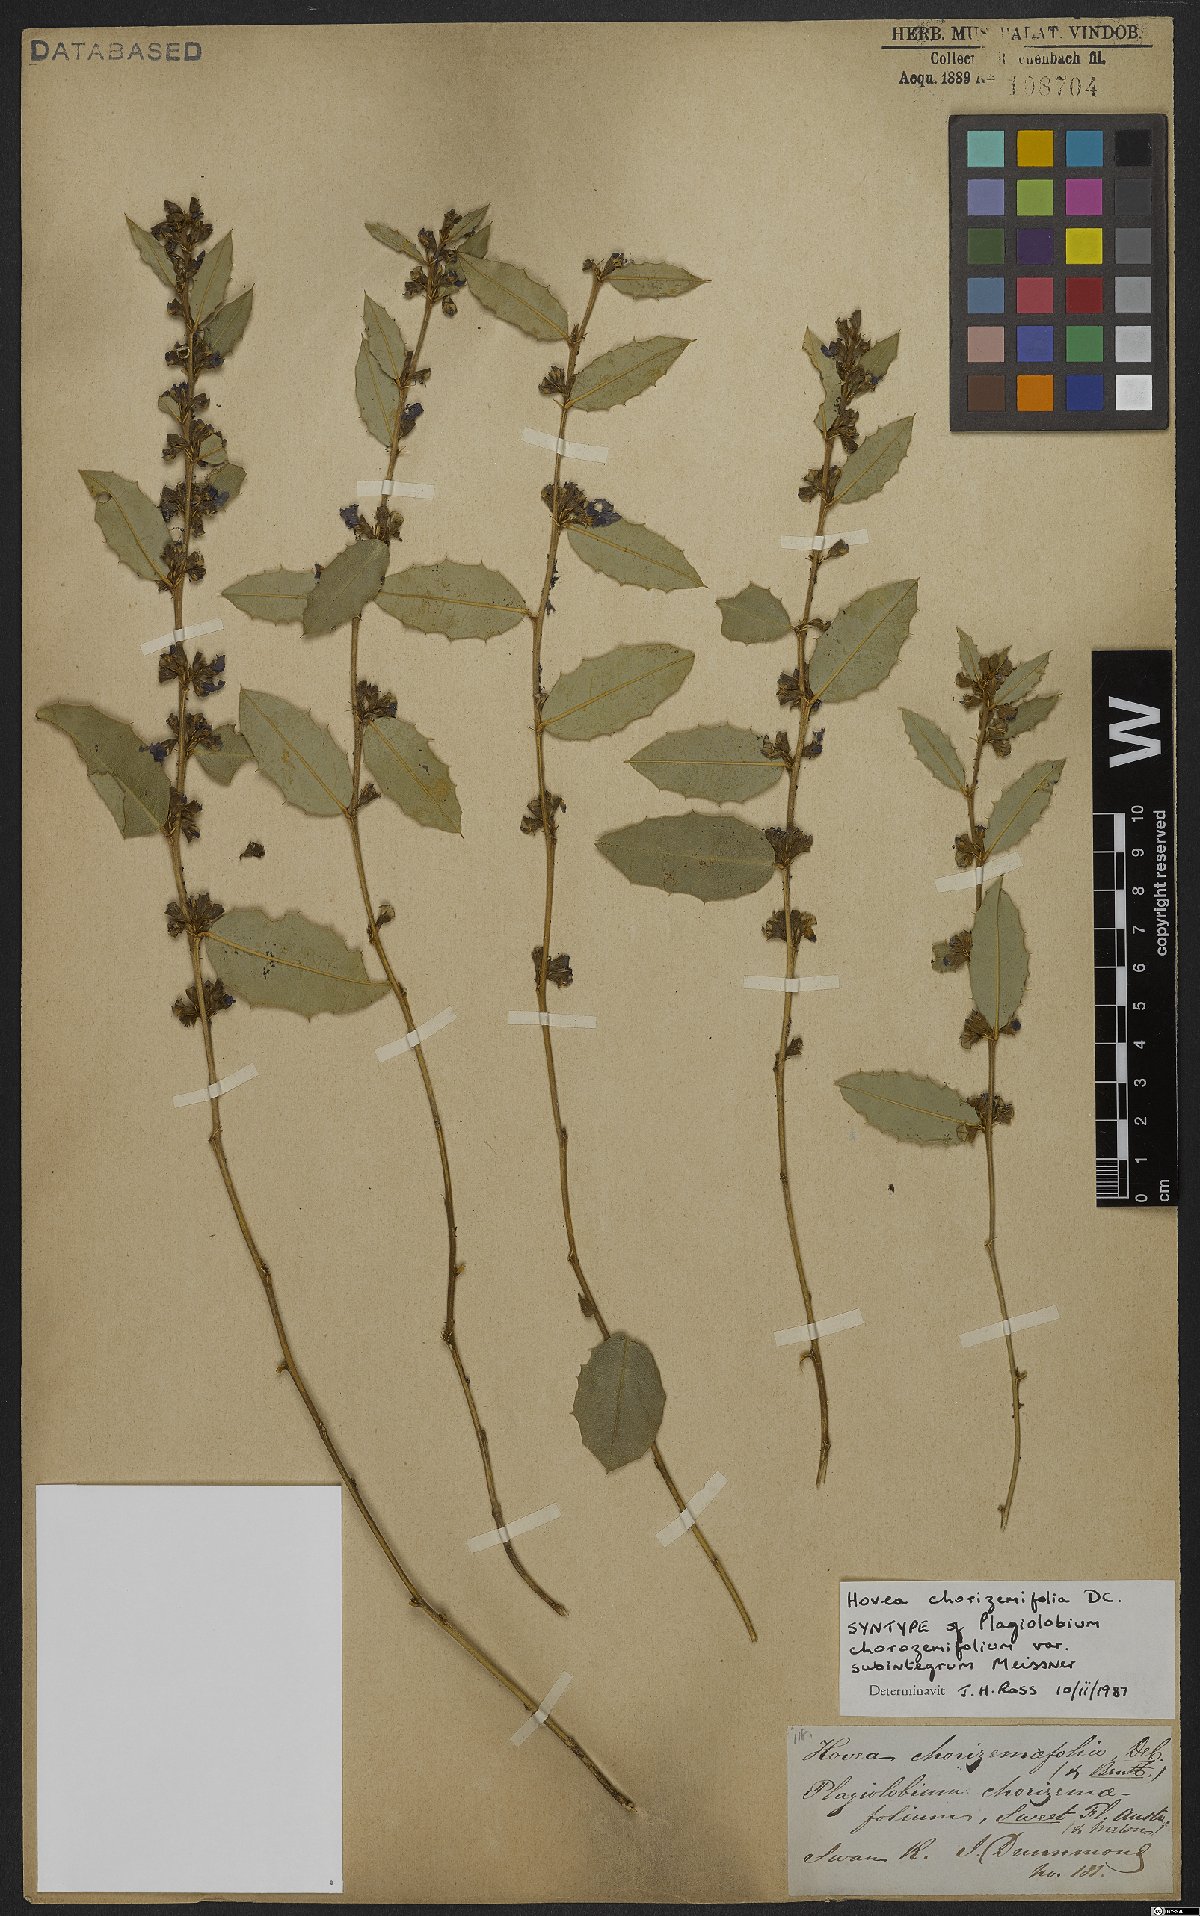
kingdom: Plantae
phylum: Tracheophyta
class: Magnoliopsida
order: Fabales
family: Fabaceae
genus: Hovea
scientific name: Hovea chorizemifolia
